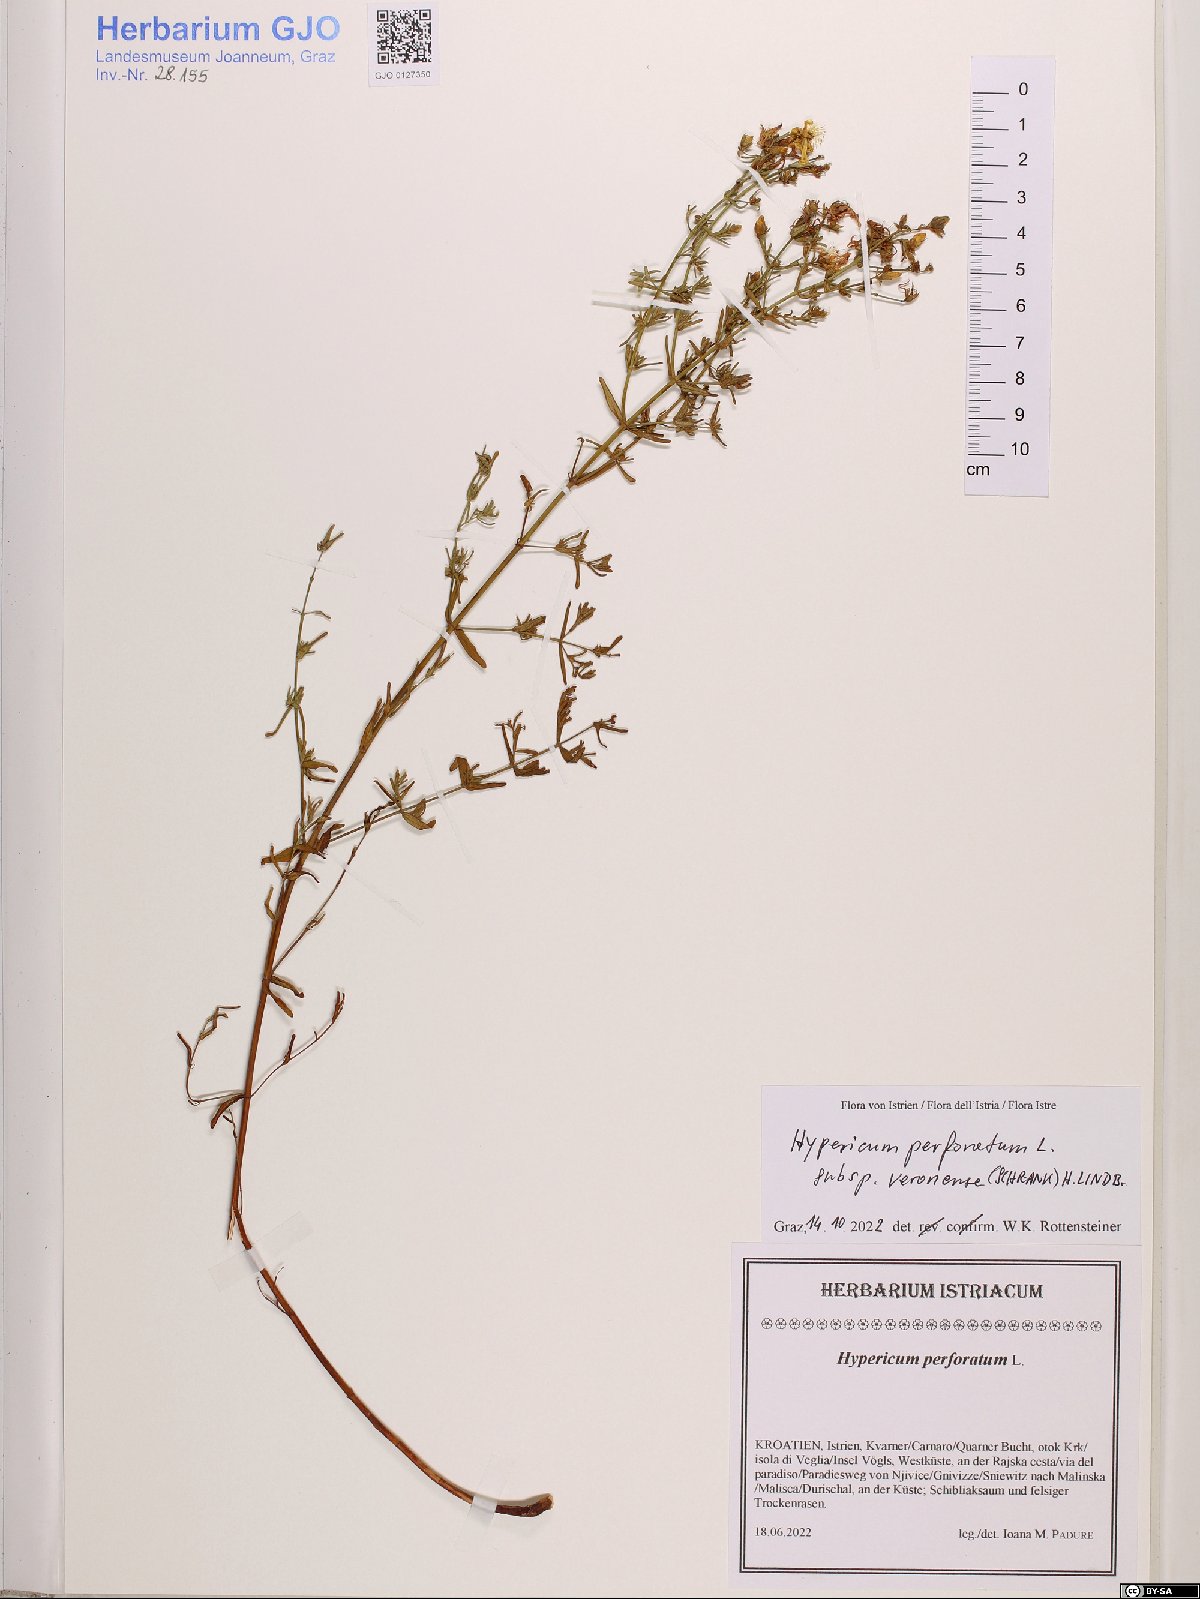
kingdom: Plantae
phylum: Tracheophyta
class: Magnoliopsida
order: Malpighiales
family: Hypericaceae
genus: Hypericum
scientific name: Hypericum veronense
